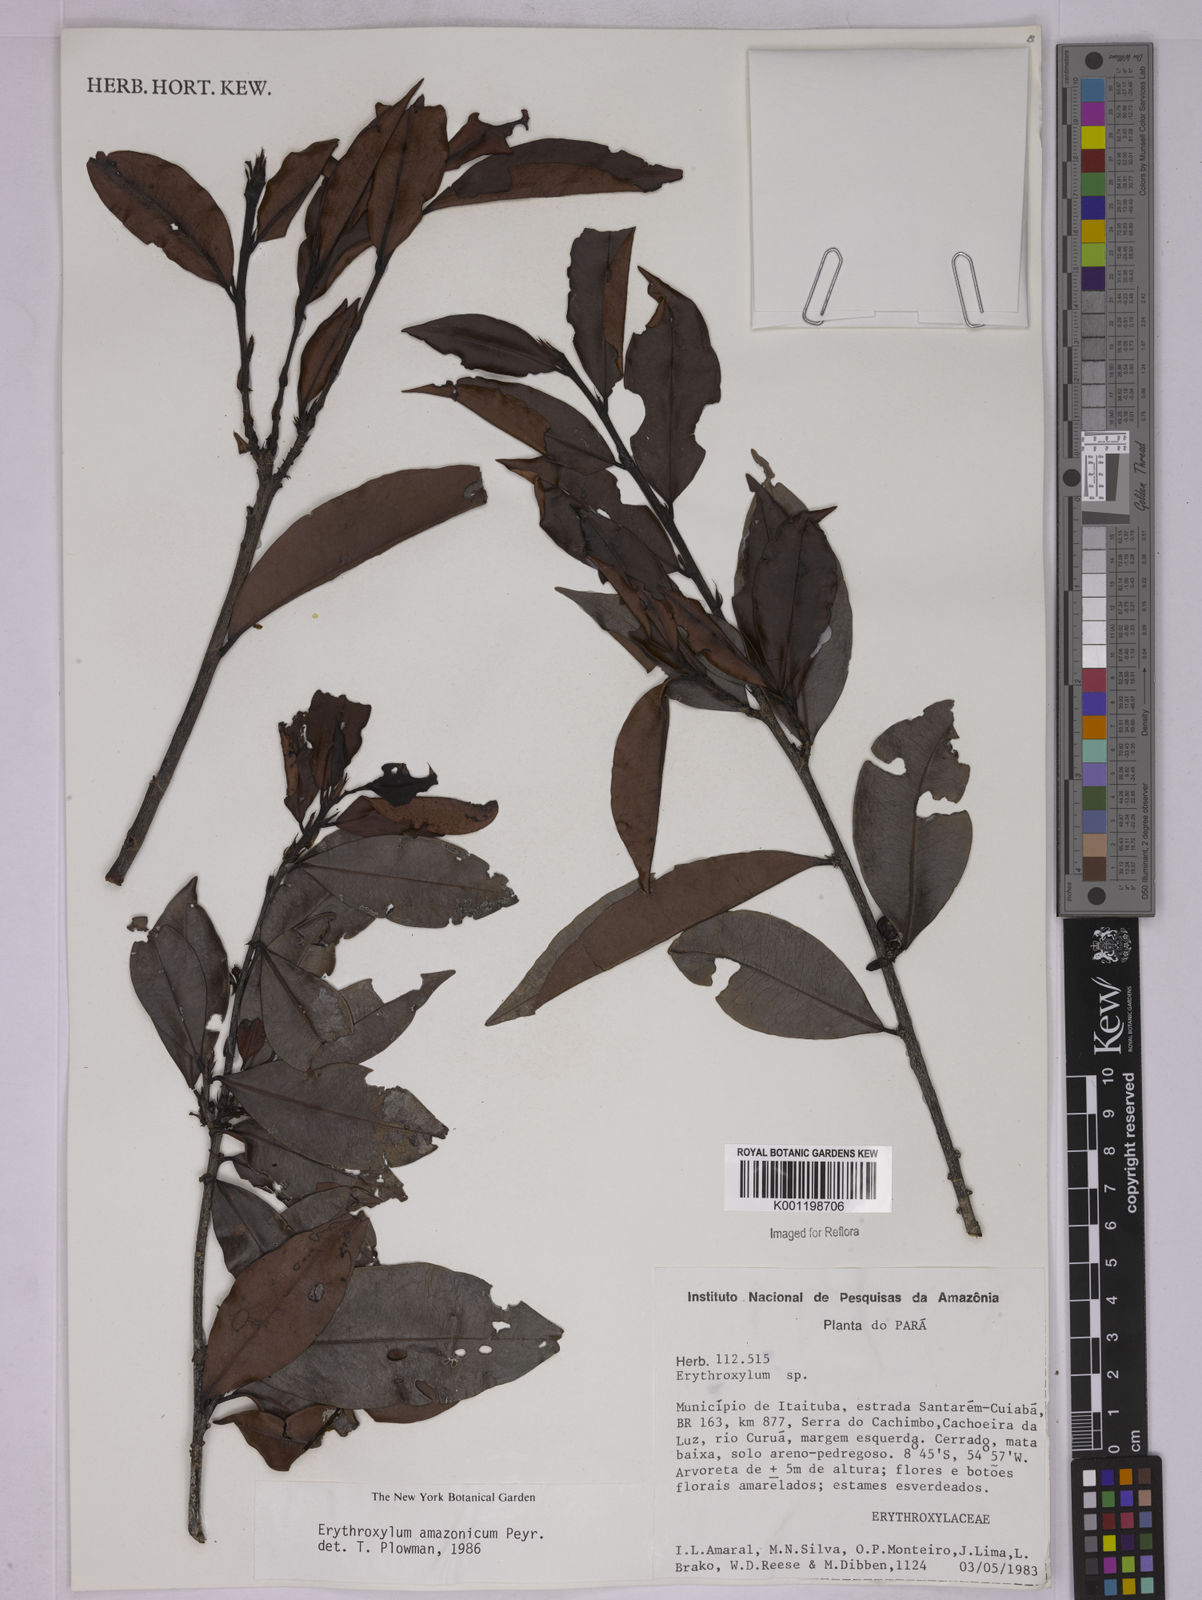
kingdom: Plantae
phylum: Tracheophyta
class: Magnoliopsida
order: Malpighiales
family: Erythroxylaceae
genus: Erythroxylum
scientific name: Erythroxylum amazonicum
